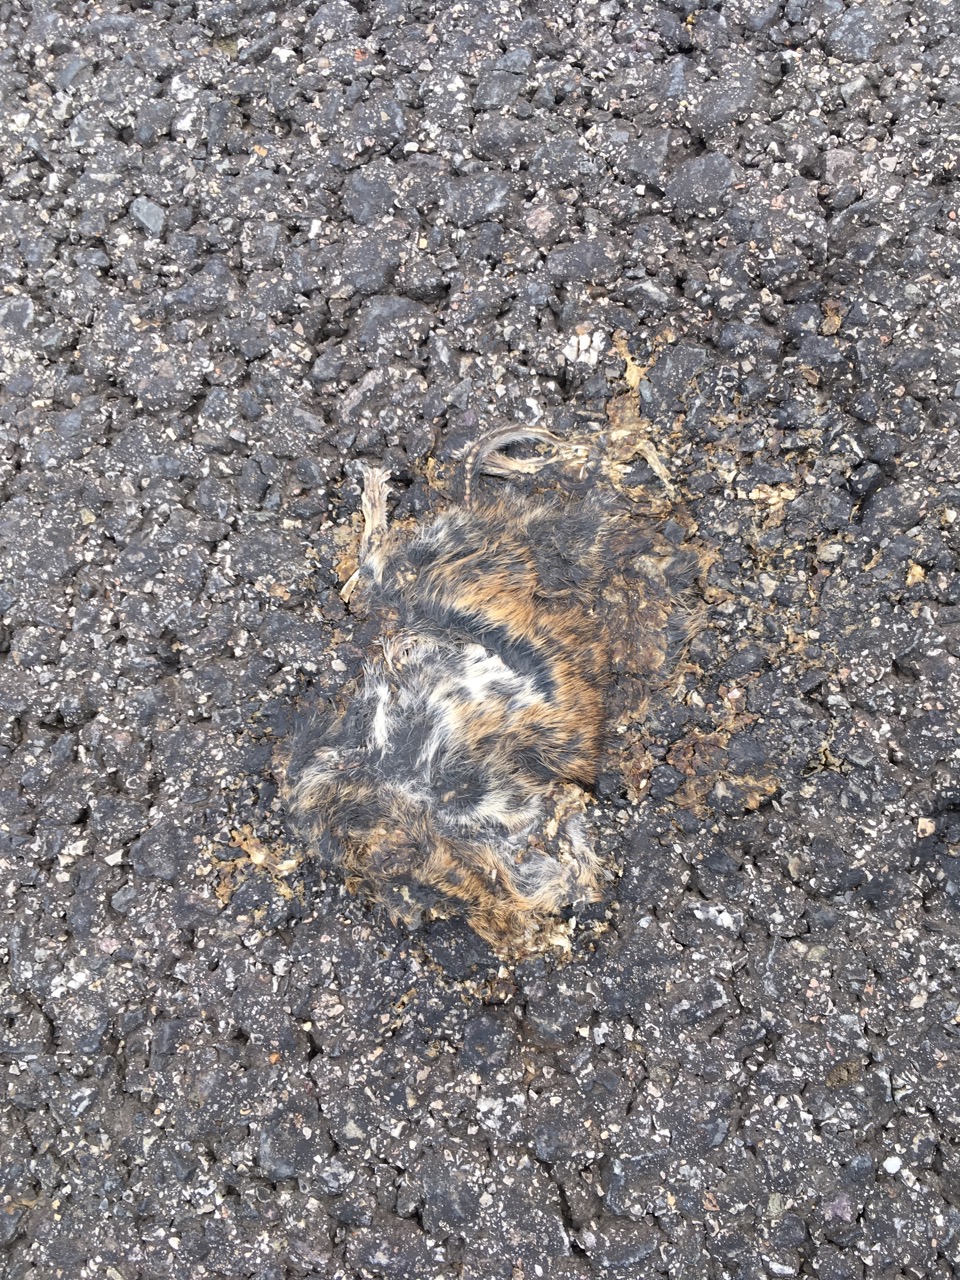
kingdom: Animalia
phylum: Chordata
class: Mammalia
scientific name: Mammalia
